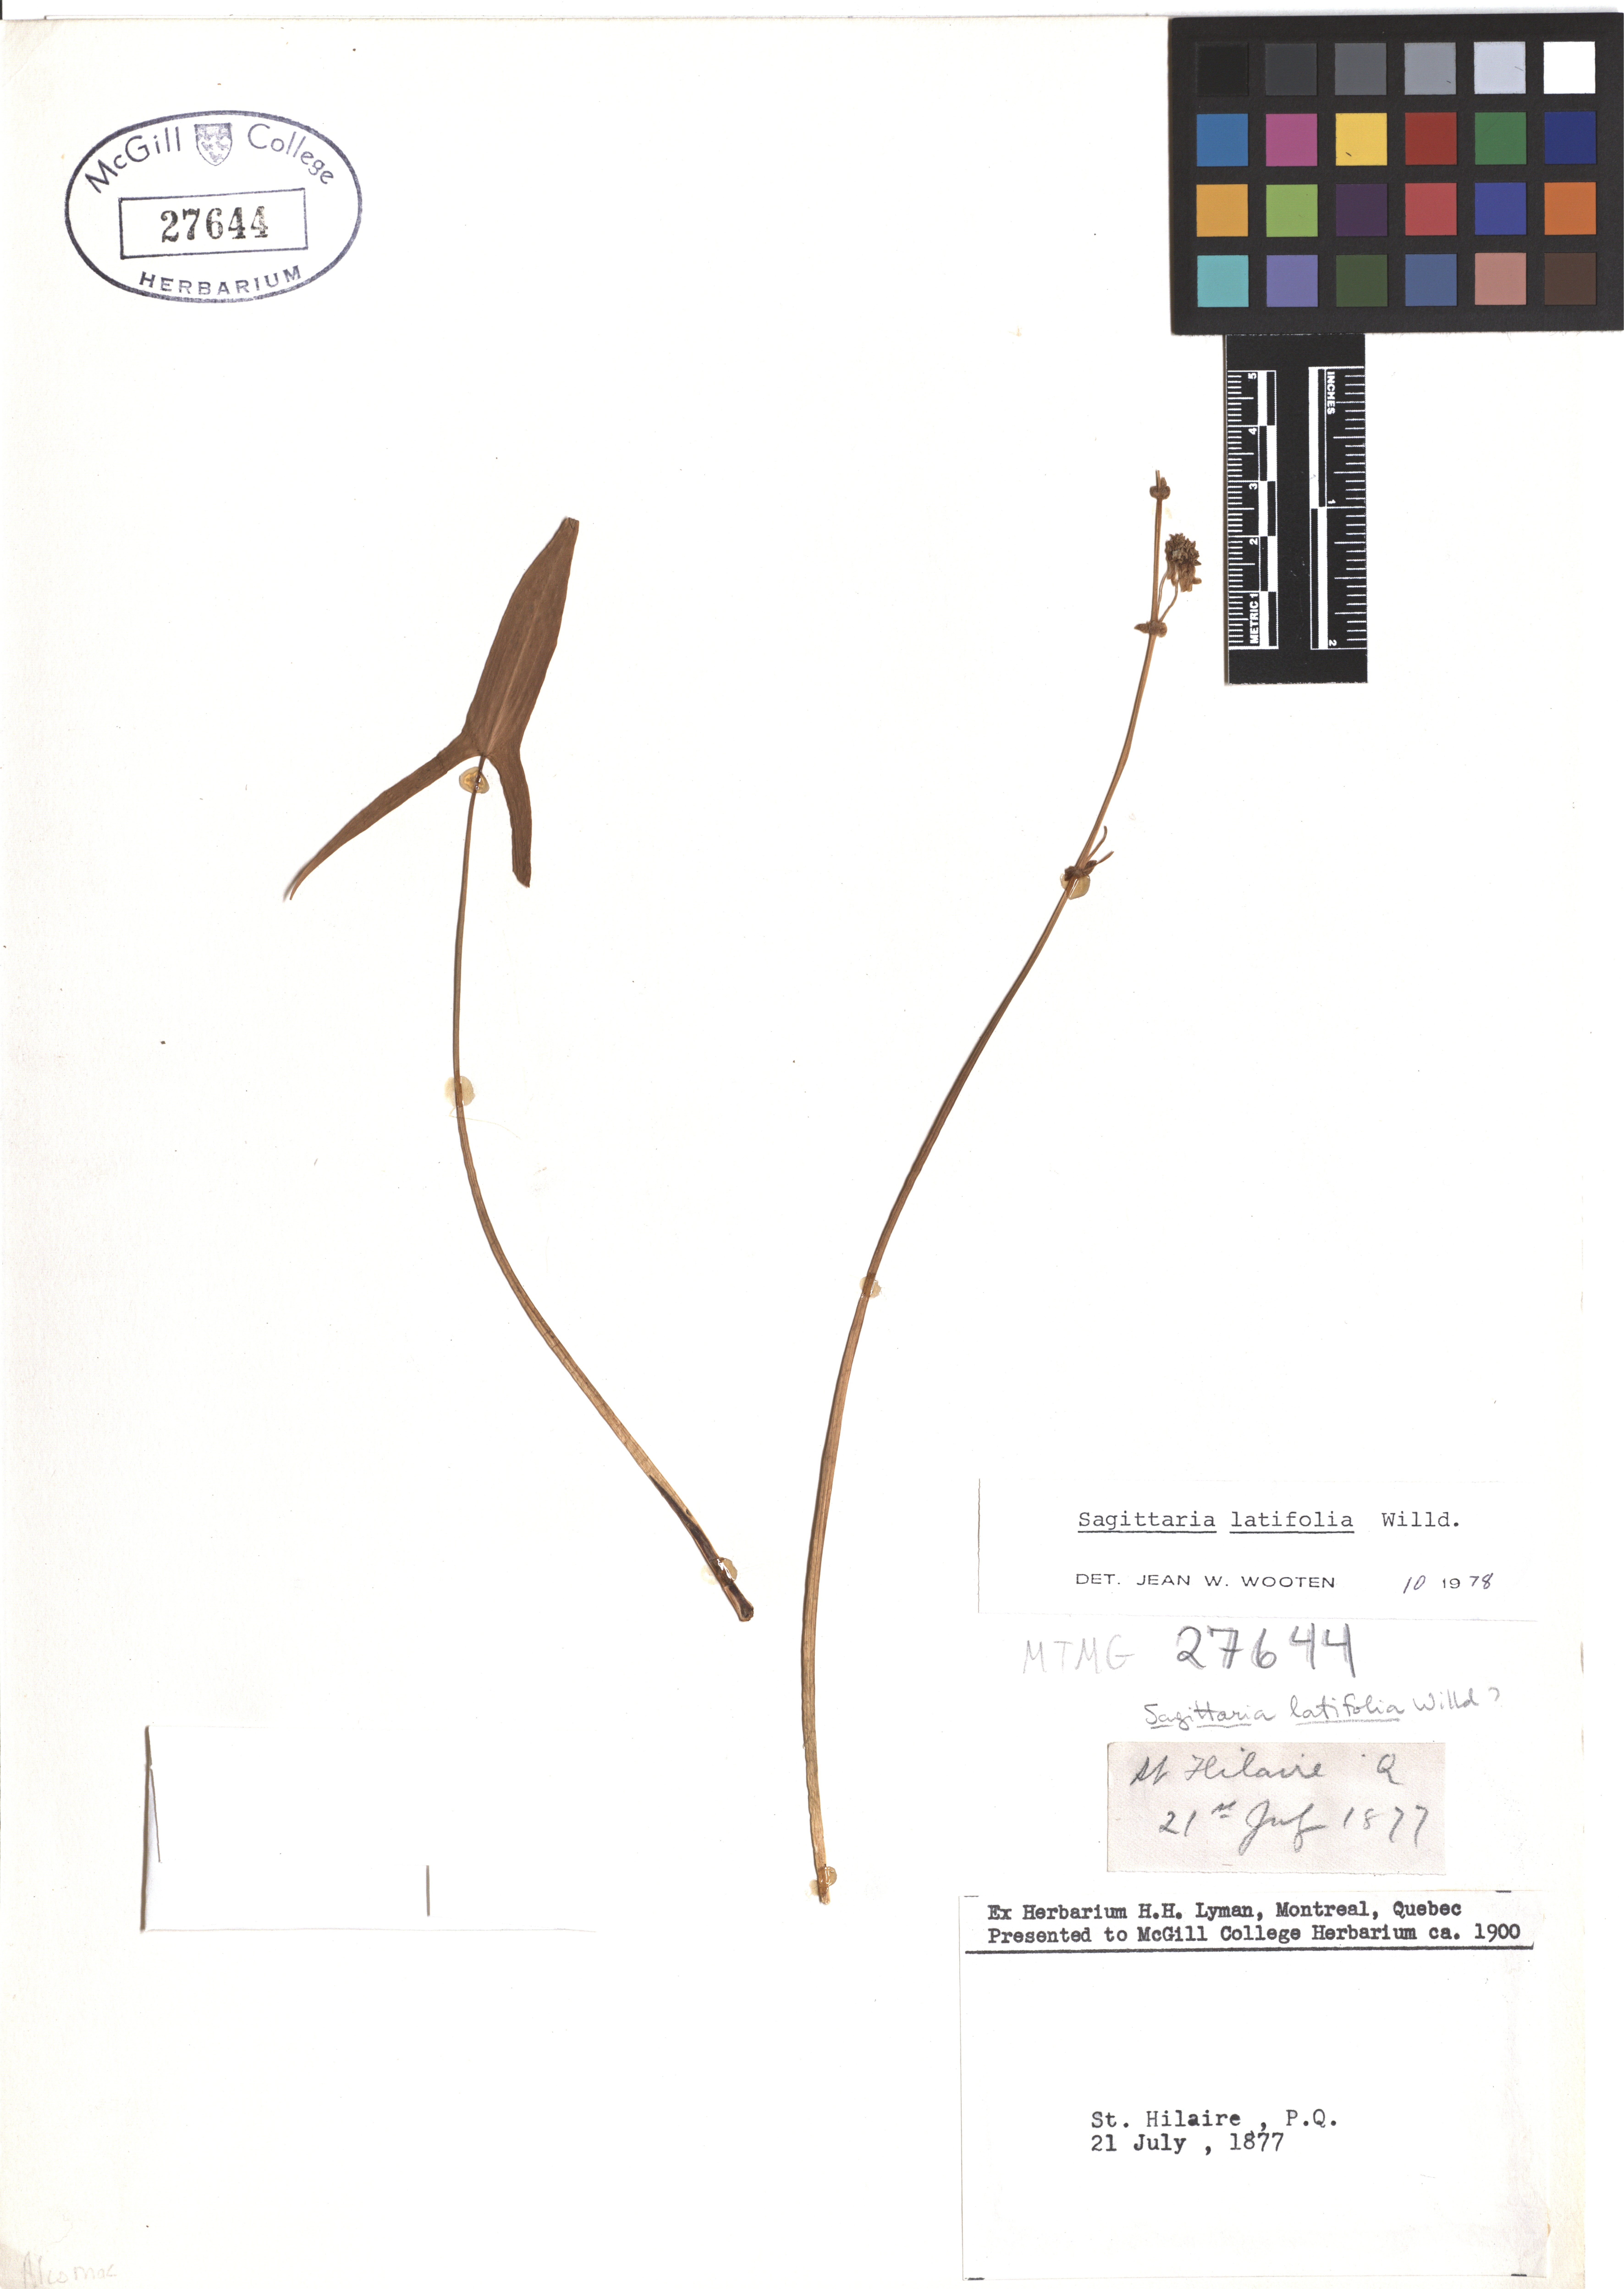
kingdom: Plantae
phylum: Tracheophyta
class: Liliopsida
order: Alismatales
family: Alismataceae
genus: Sagittaria
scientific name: Sagittaria latifolia
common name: Duck-potato
